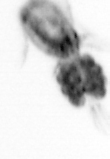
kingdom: Animalia
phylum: Arthropoda
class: Copepoda
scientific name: Copepoda
